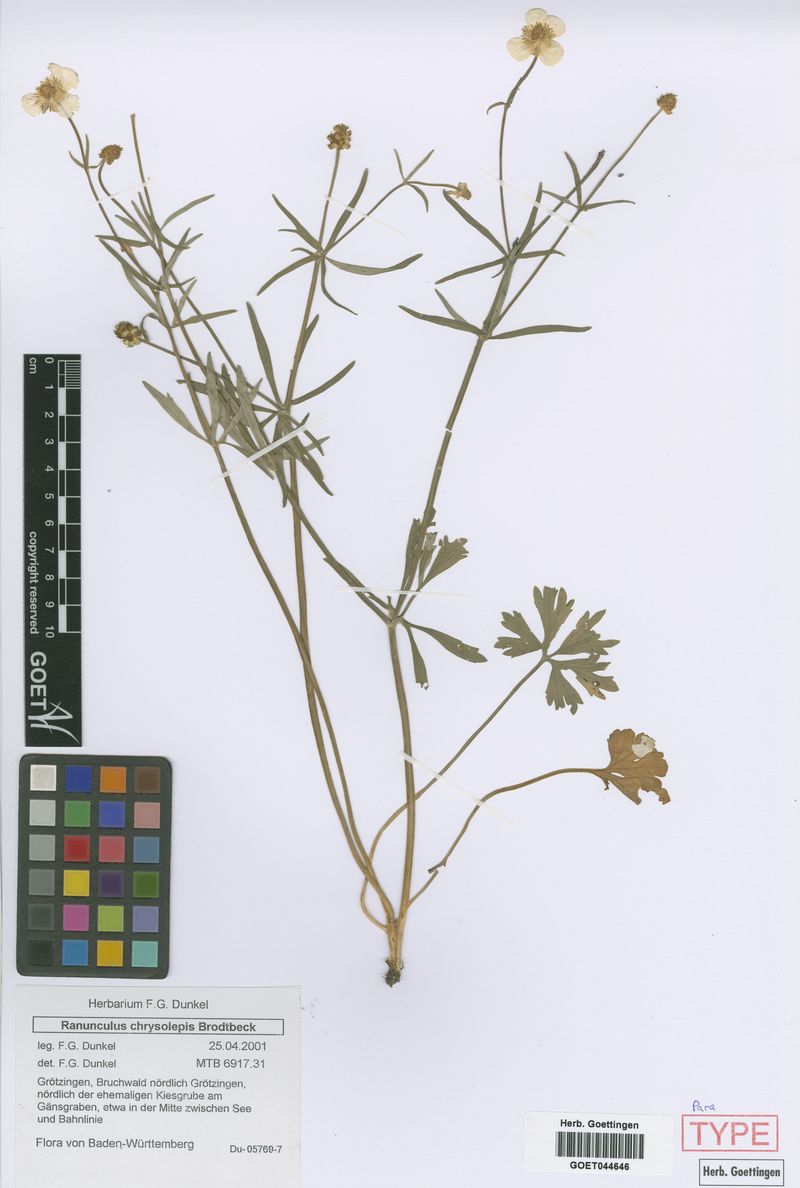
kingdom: Plantae
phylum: Tracheophyta
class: Magnoliopsida
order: Ranunculales
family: Ranunculaceae
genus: Ranunculus
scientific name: Ranunculus chrysoleptos
